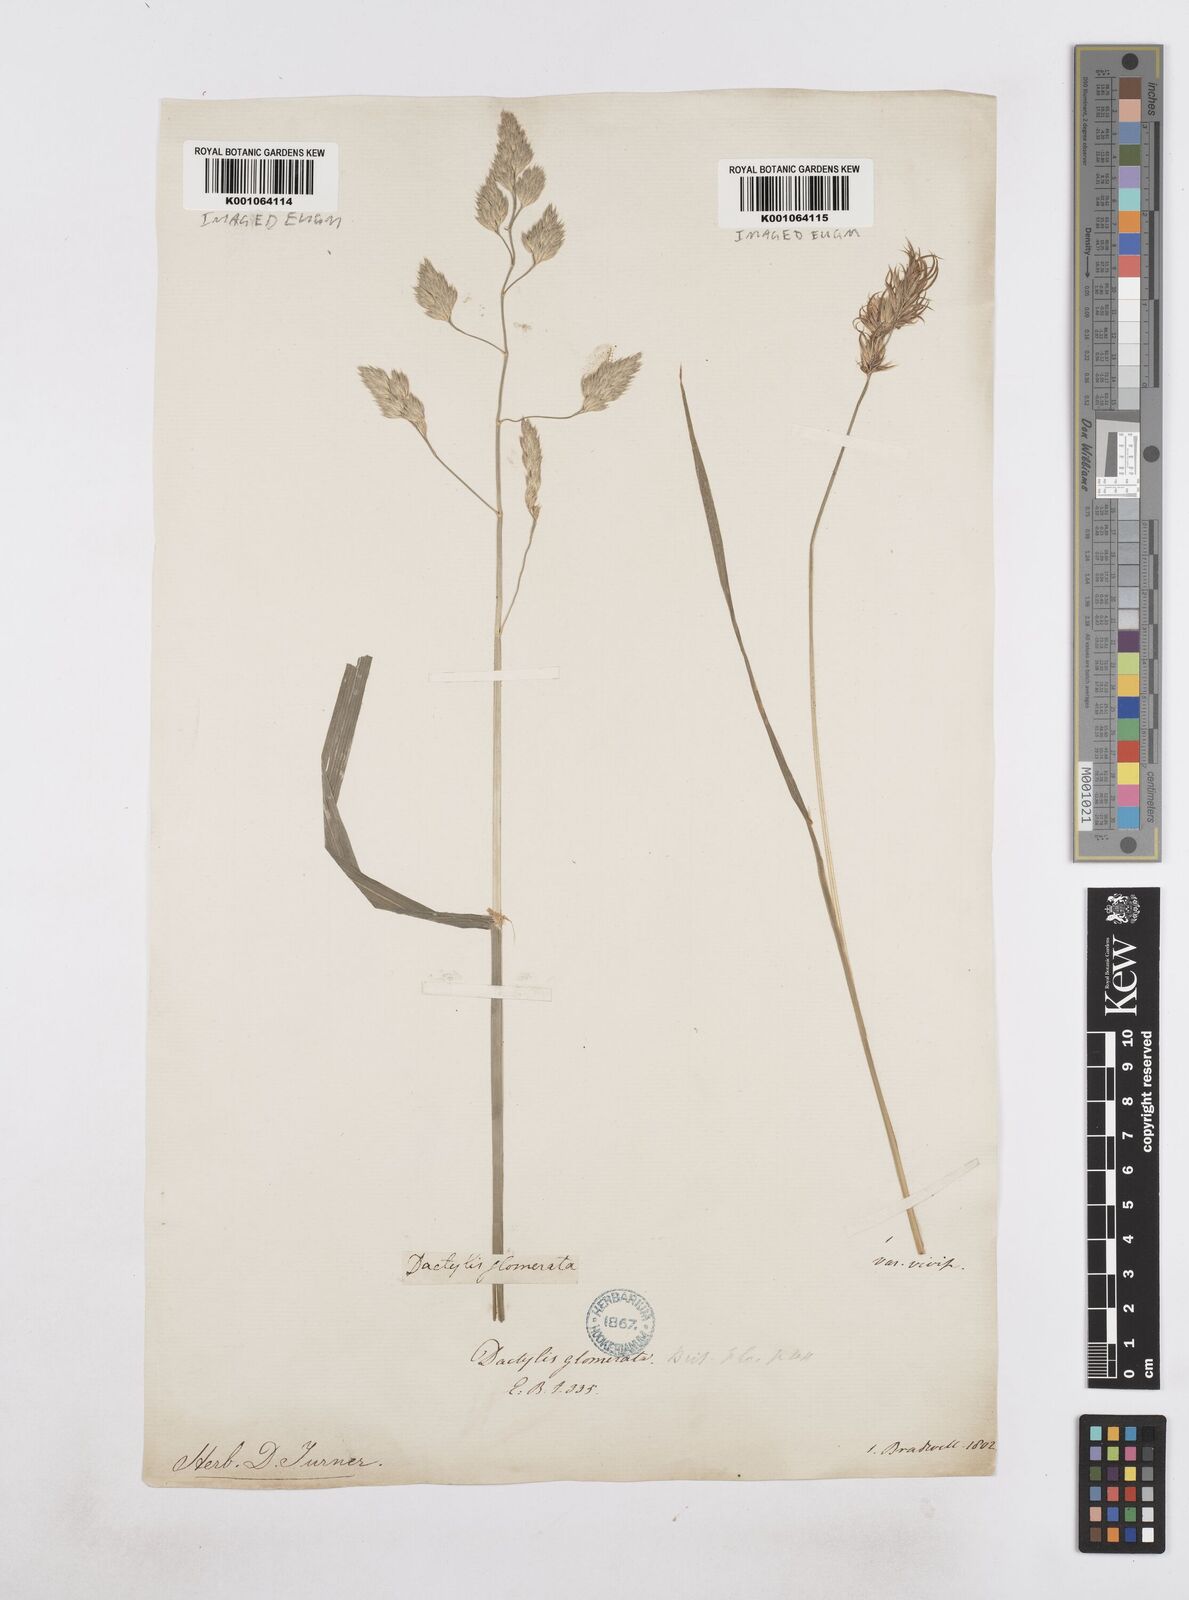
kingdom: Plantae
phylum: Tracheophyta
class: Liliopsida
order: Poales
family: Poaceae
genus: Dactylis
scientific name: Dactylis glomerata
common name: Orchardgrass
